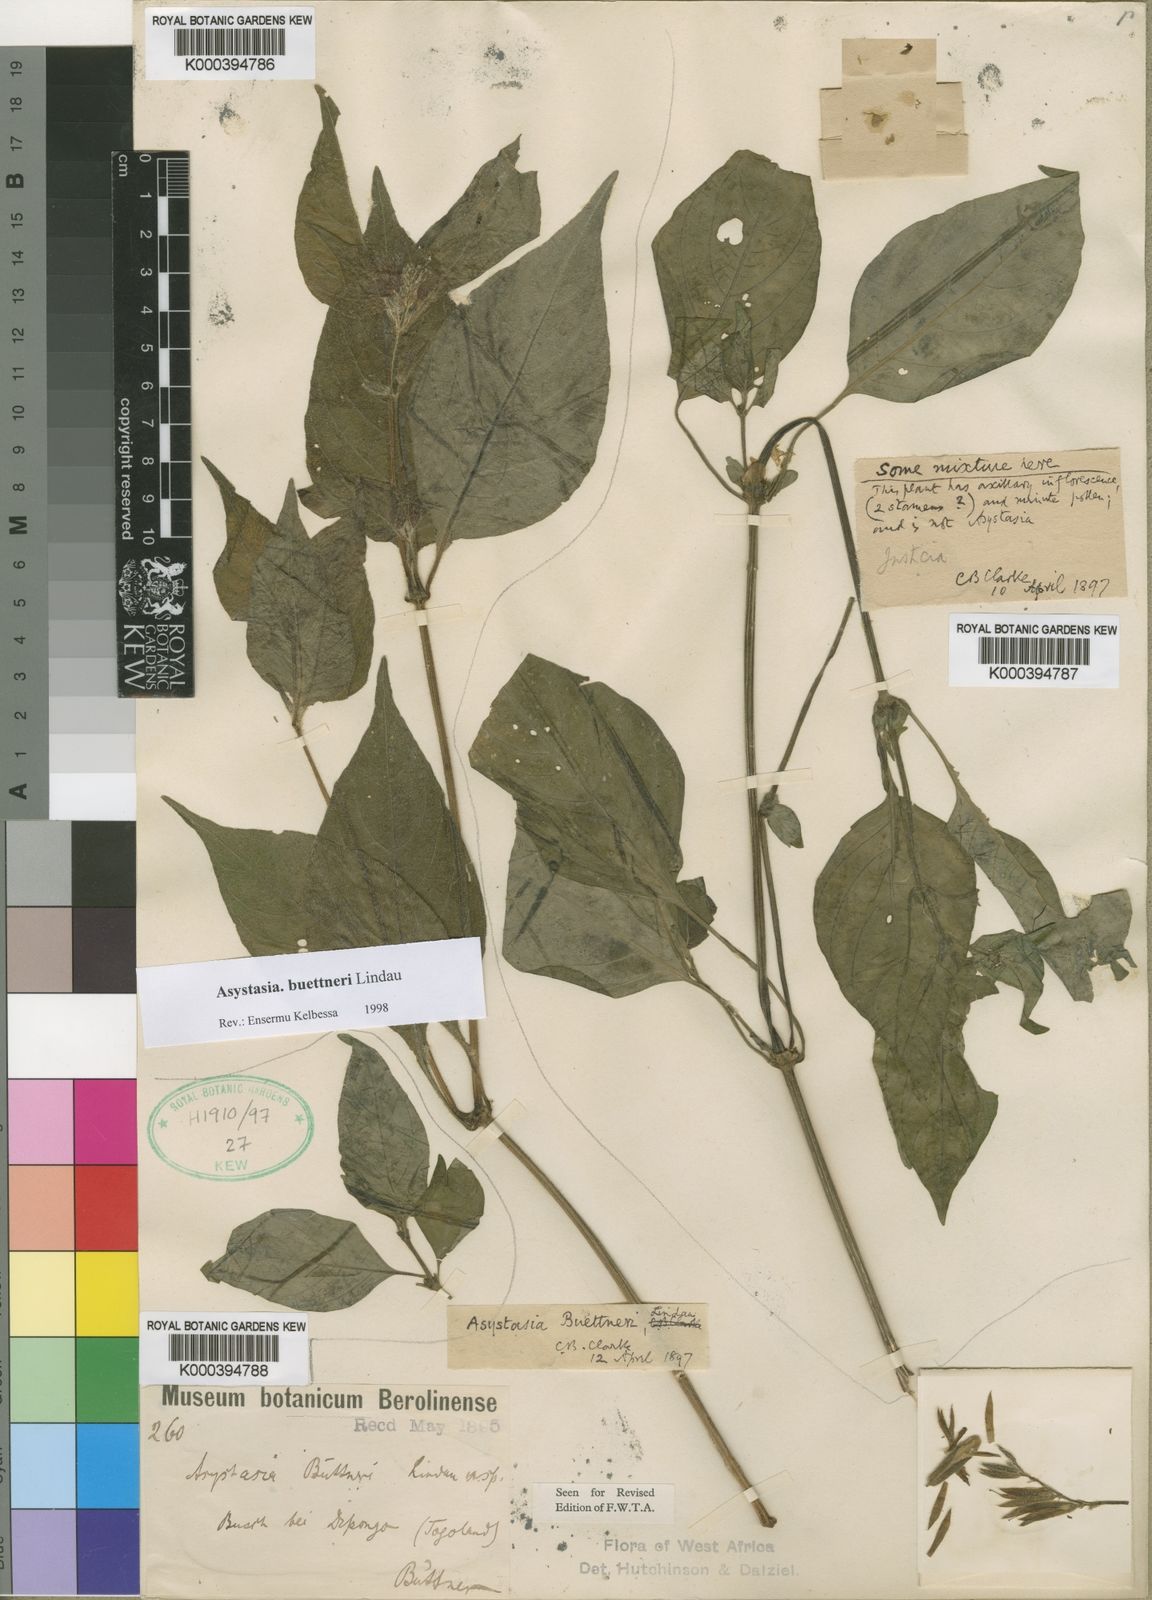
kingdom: Plantae
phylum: Tracheophyta
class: Magnoliopsida
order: Lamiales
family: Acanthaceae
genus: Asystasia
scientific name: Asystasia buettneri
